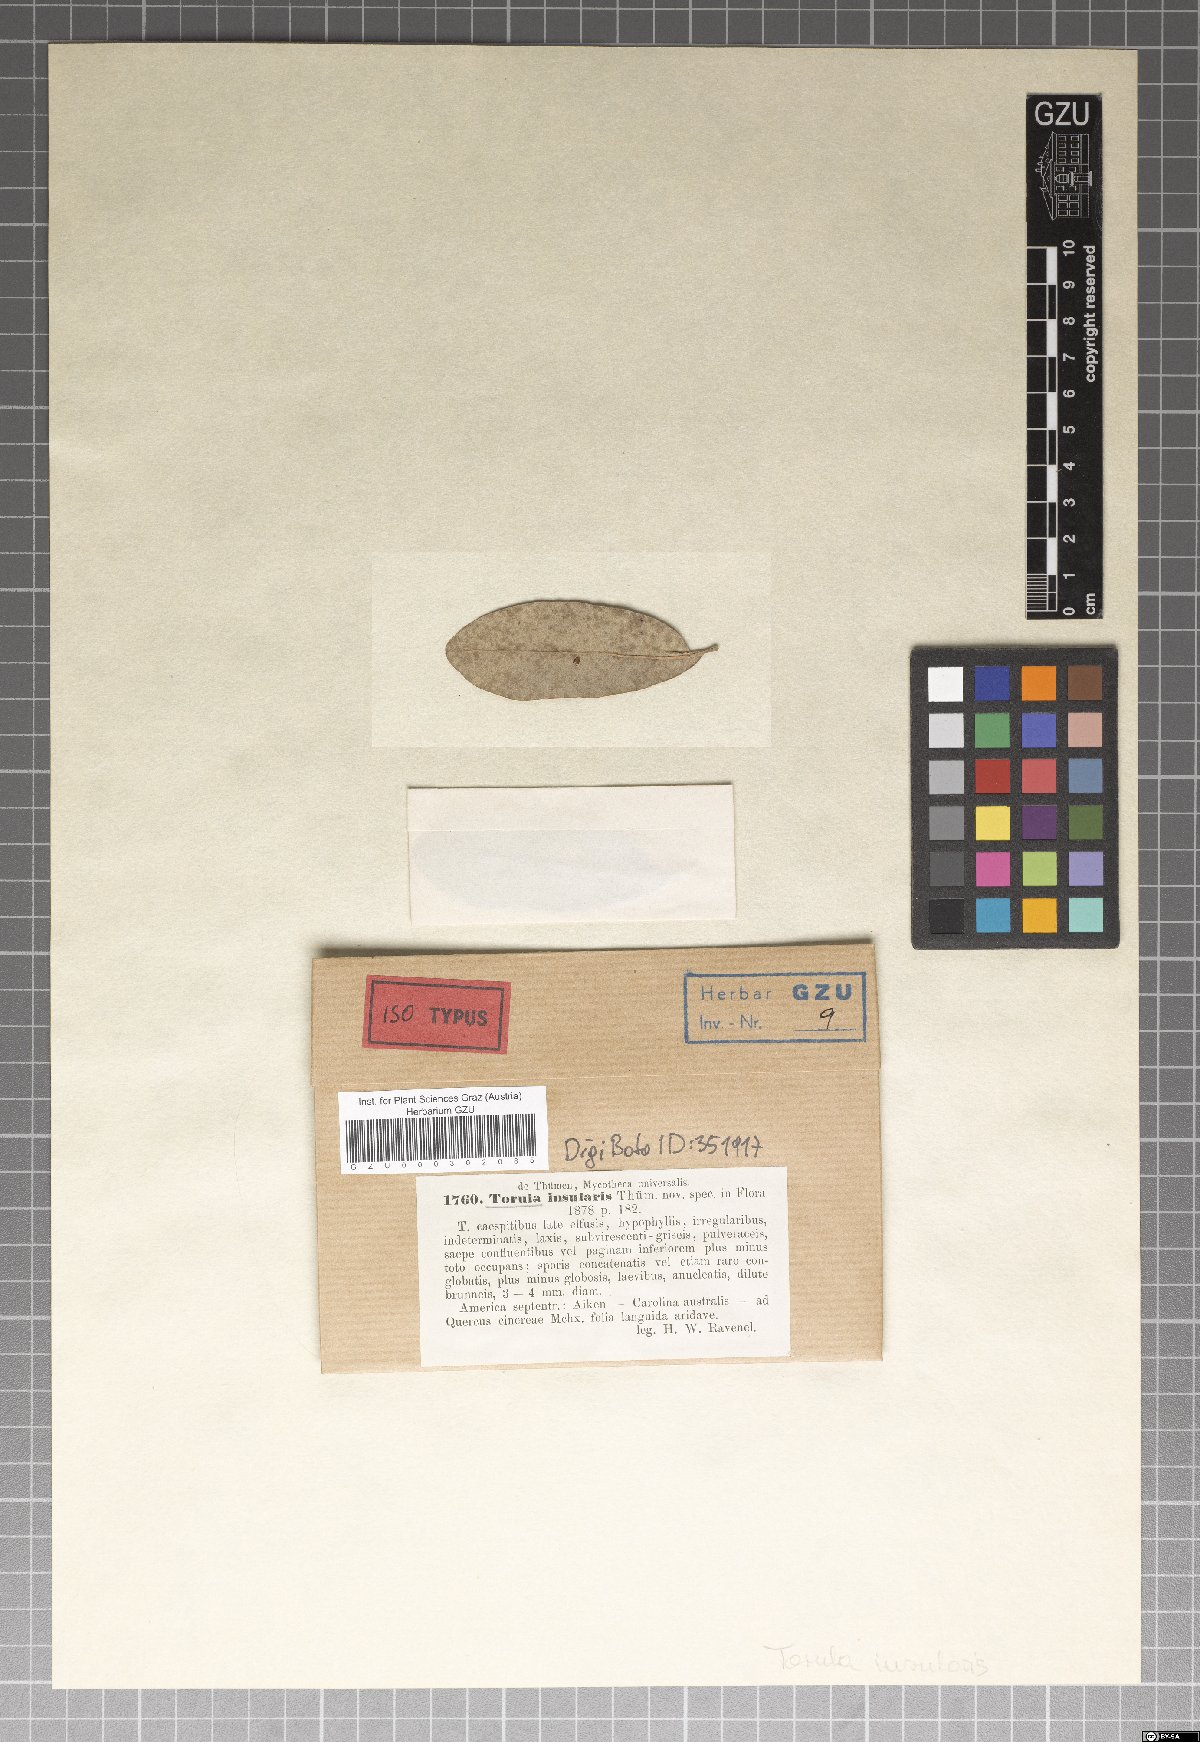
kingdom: Fungi
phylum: Ascomycota
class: Dothideomycetes
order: Capnodiales
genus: Torula
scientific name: Torula
